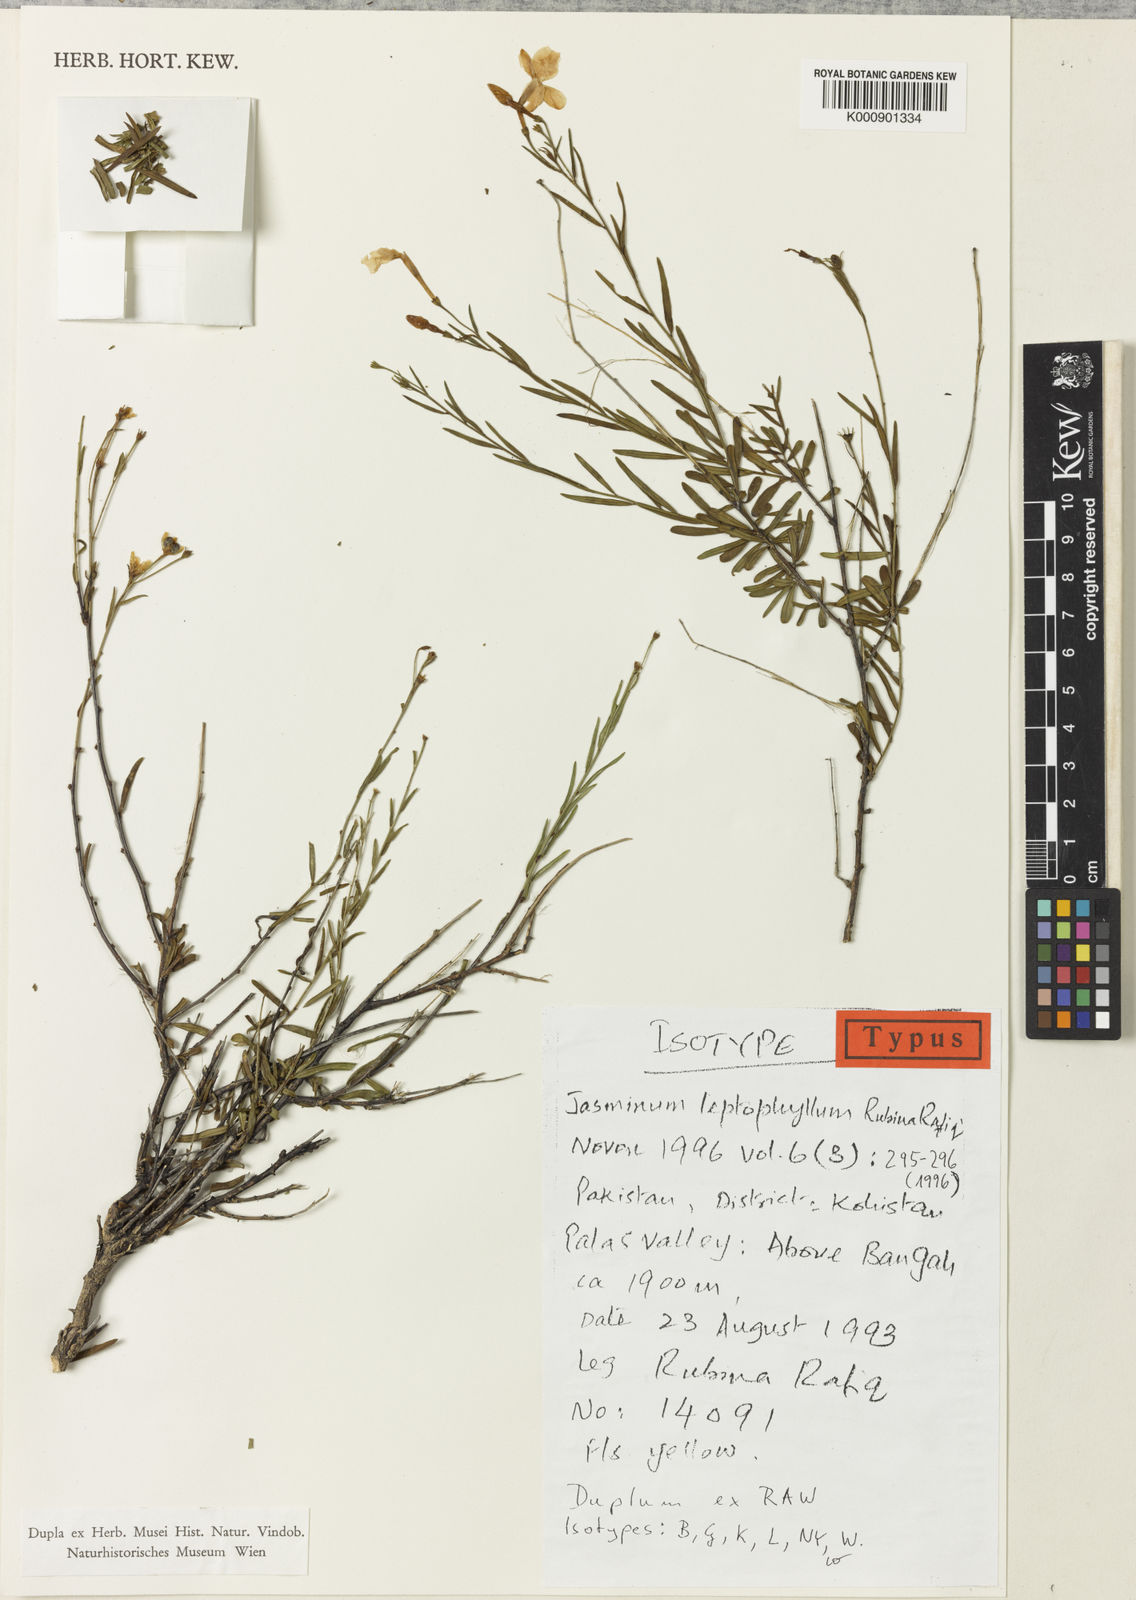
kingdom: Plantae
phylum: Tracheophyta
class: Magnoliopsida
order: Lamiales
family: Oleaceae
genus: Chrysojasminum
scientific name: Chrysojasminum leptophyllum
